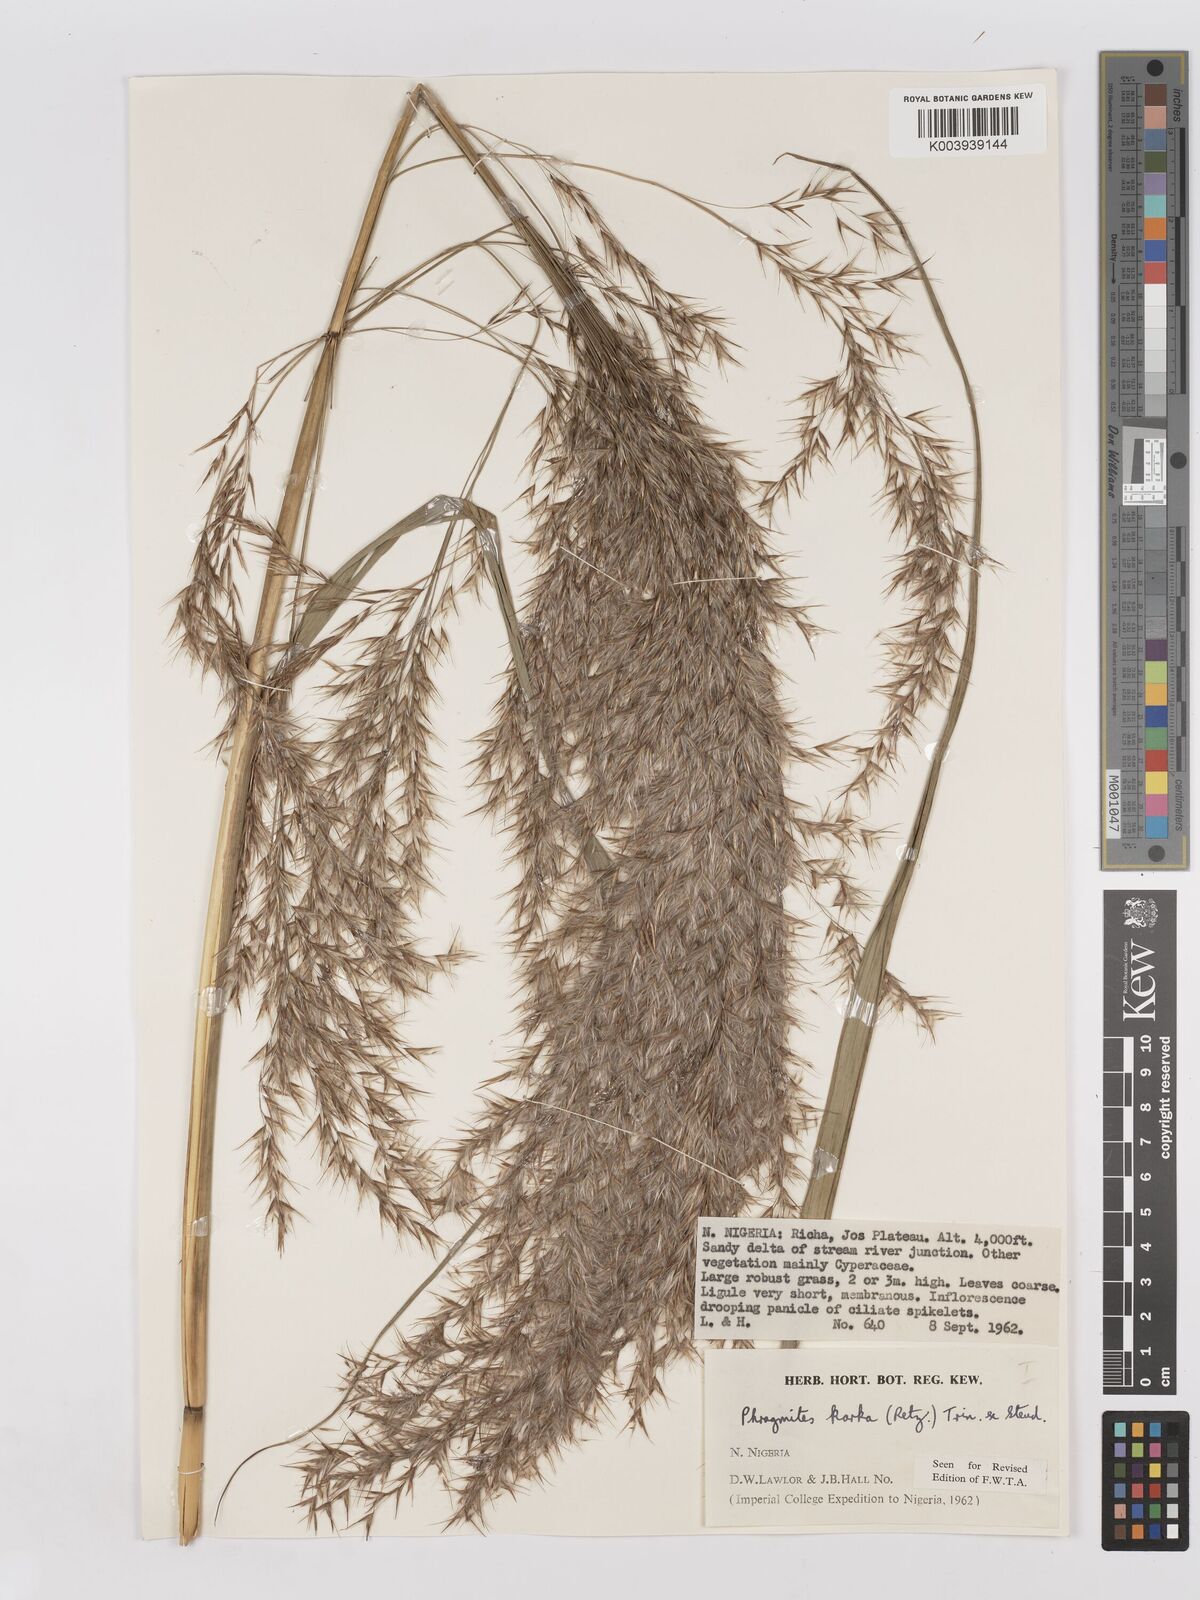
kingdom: Plantae
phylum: Tracheophyta
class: Liliopsida
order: Poales
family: Poaceae
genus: Phragmites
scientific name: Phragmites karka
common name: Tropical reed
